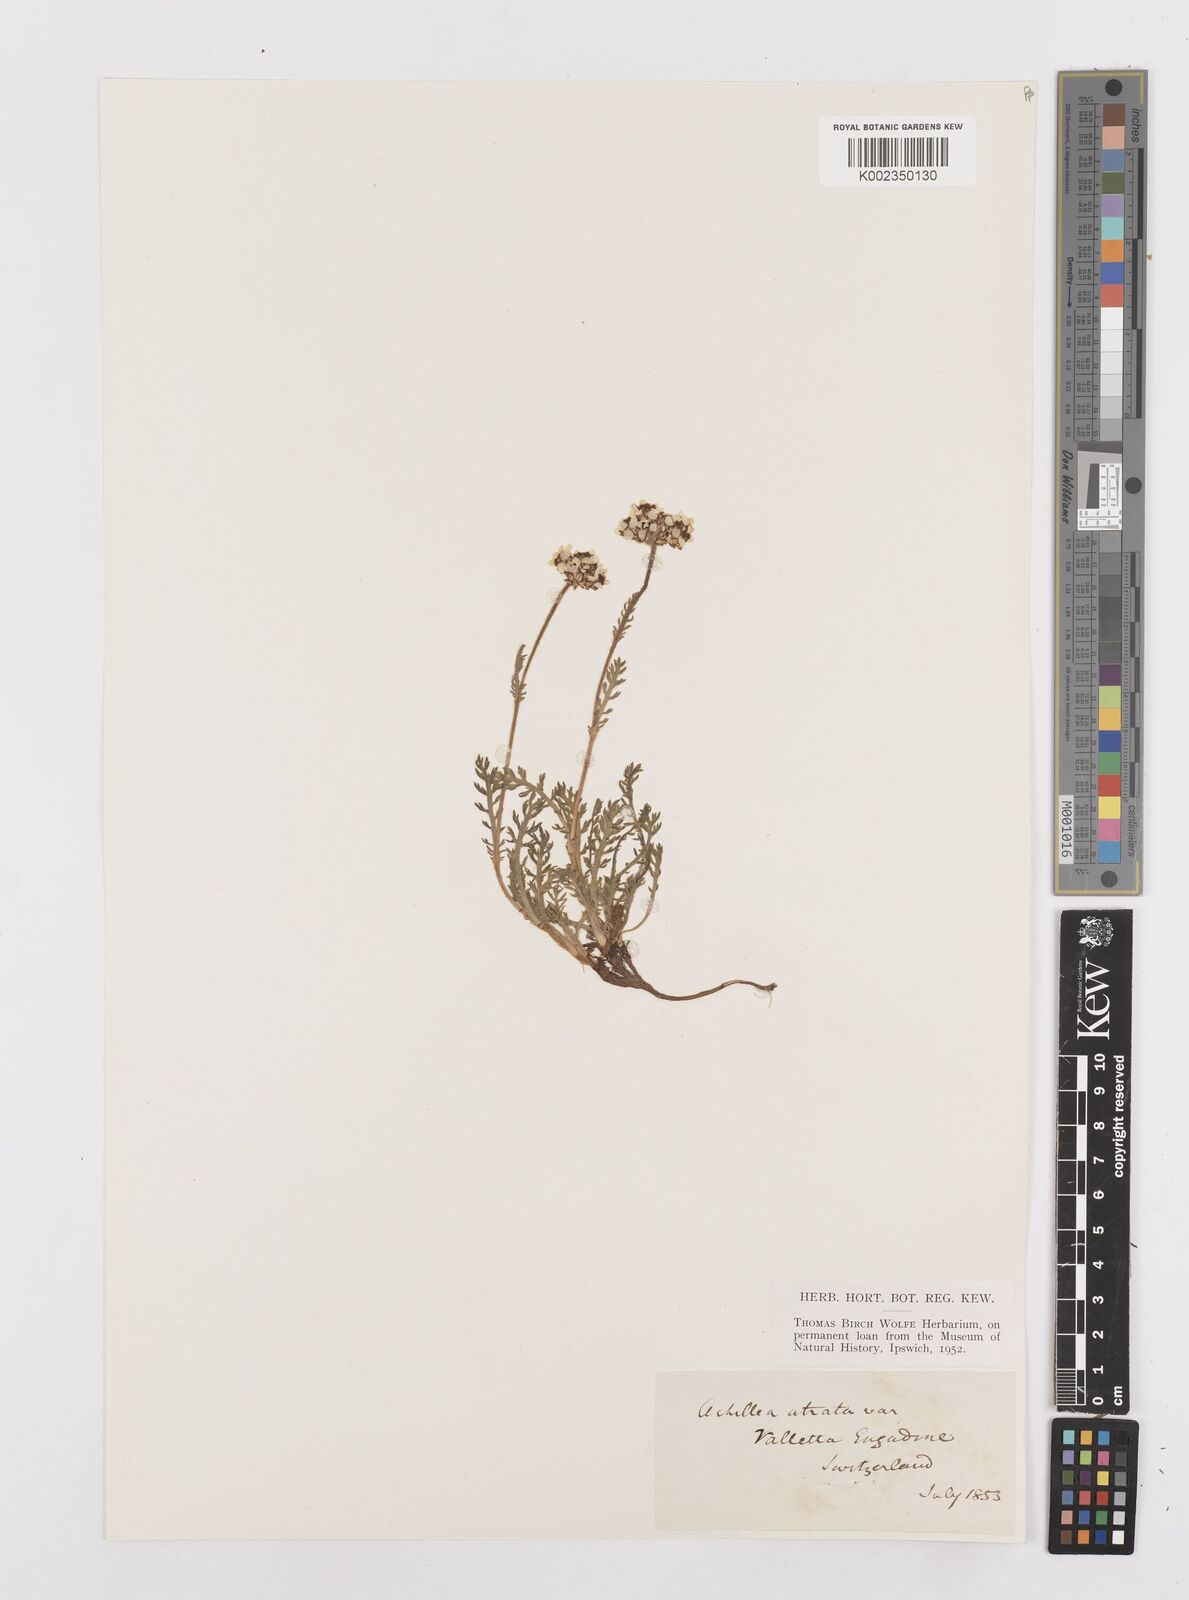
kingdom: Plantae
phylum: Tracheophyta
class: Magnoliopsida
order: Asterales
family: Asteraceae
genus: Achillea
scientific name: Achillea atrata
